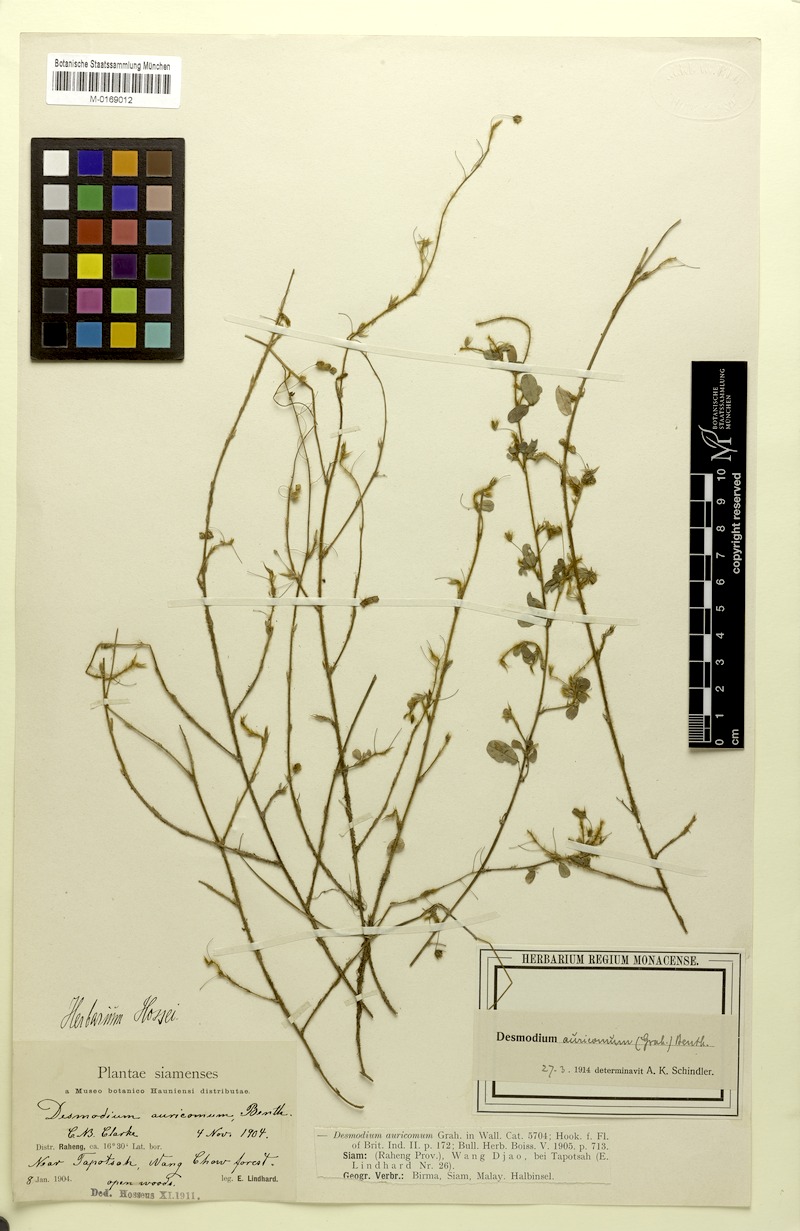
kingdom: Plantae
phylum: Tracheophyta
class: Magnoliopsida
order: Fabales
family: Fabaceae
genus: Grona
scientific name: Grona auricoma
